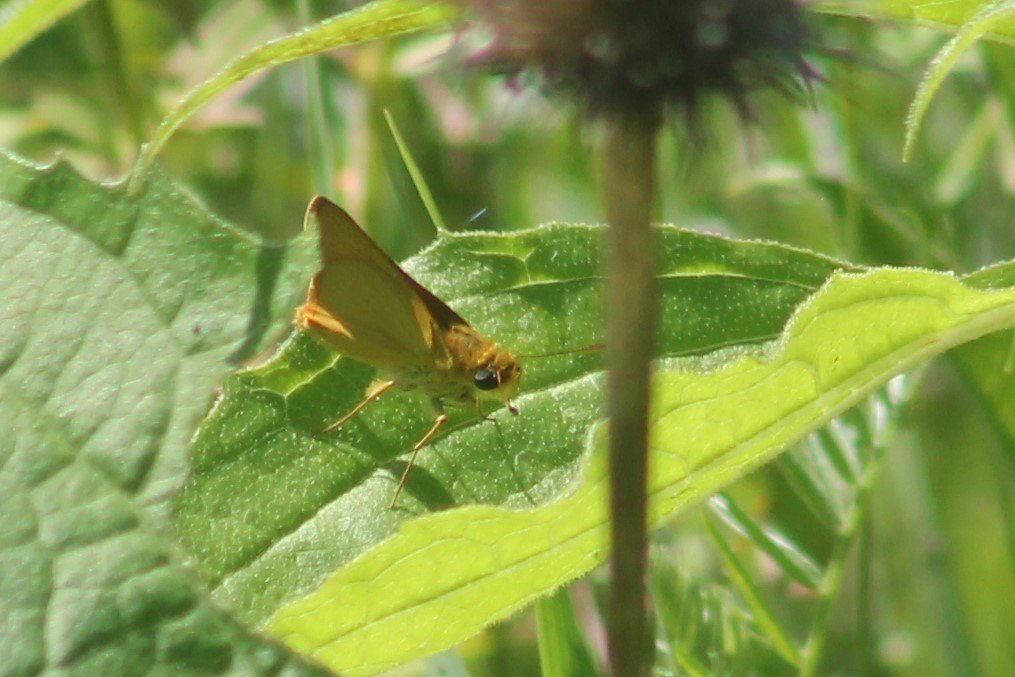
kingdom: Animalia
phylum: Arthropoda
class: Insecta
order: Lepidoptera
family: Hesperiidae
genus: Atrytone
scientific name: Atrytone delaware
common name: Delaware Skipper
